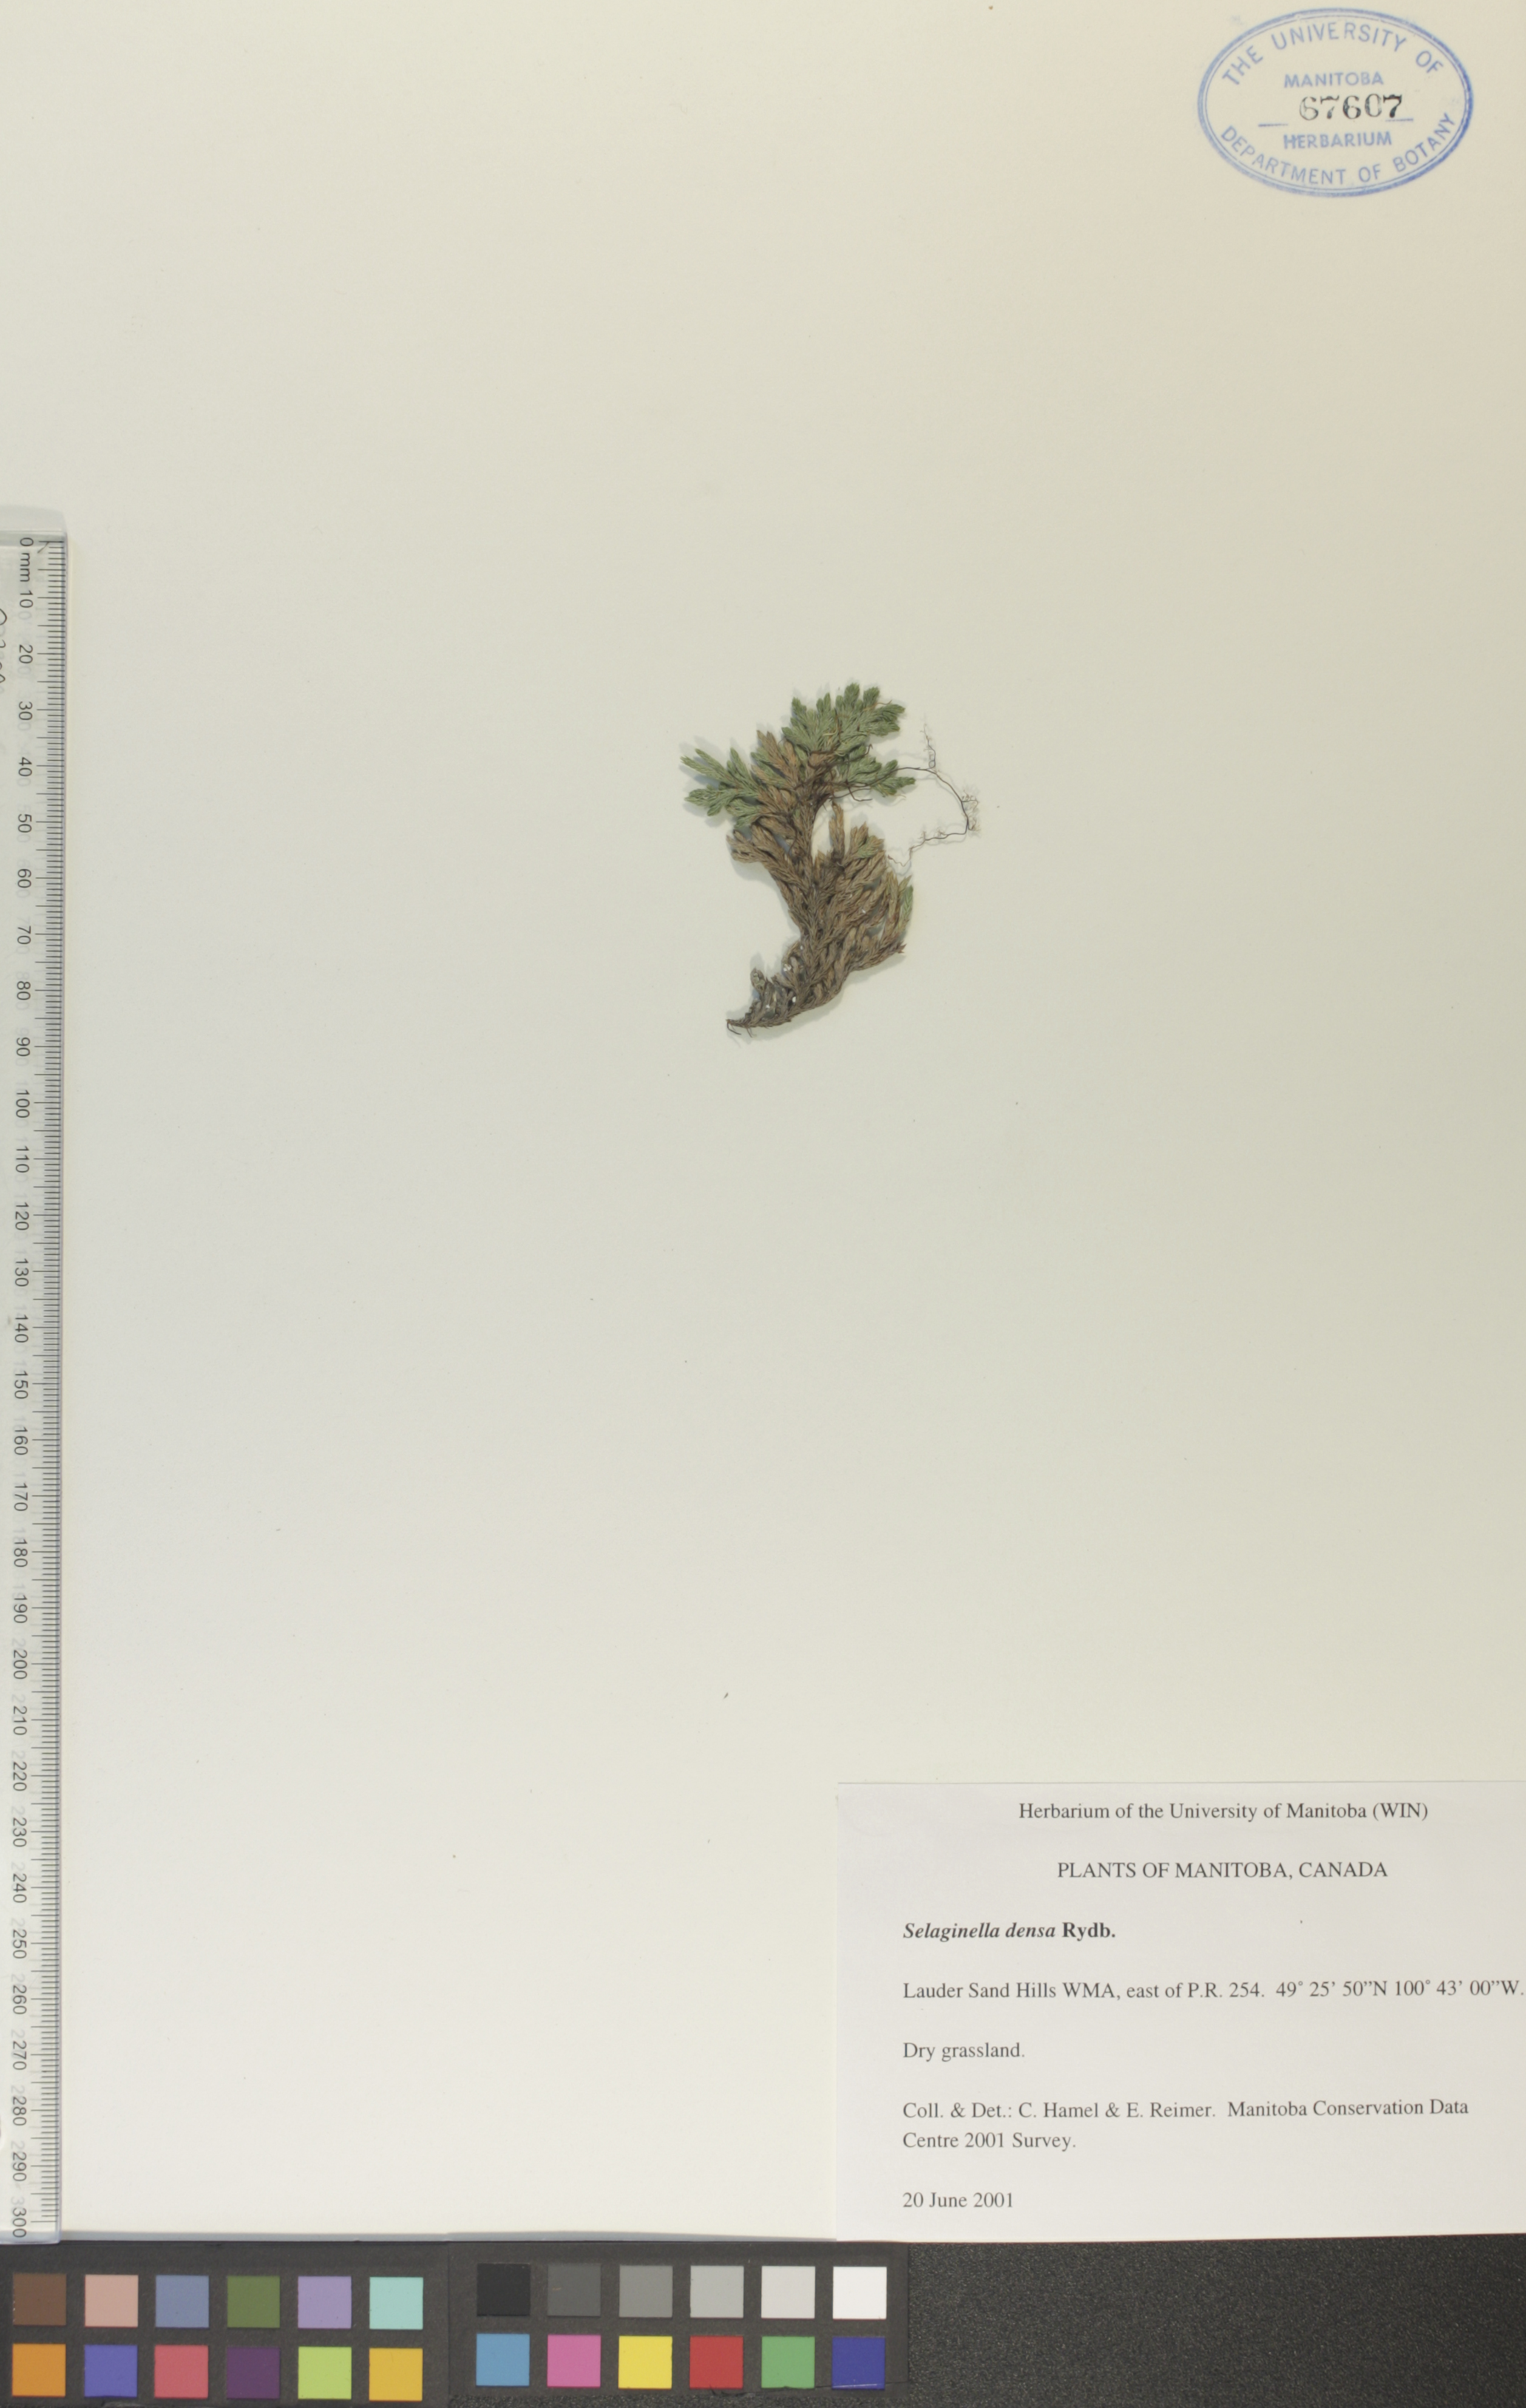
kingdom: Plantae
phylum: Tracheophyta
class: Lycopodiopsida
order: Selaginellales
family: Selaginellaceae
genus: Selaginella
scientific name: Selaginella densa
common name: Mountain spike-moss
